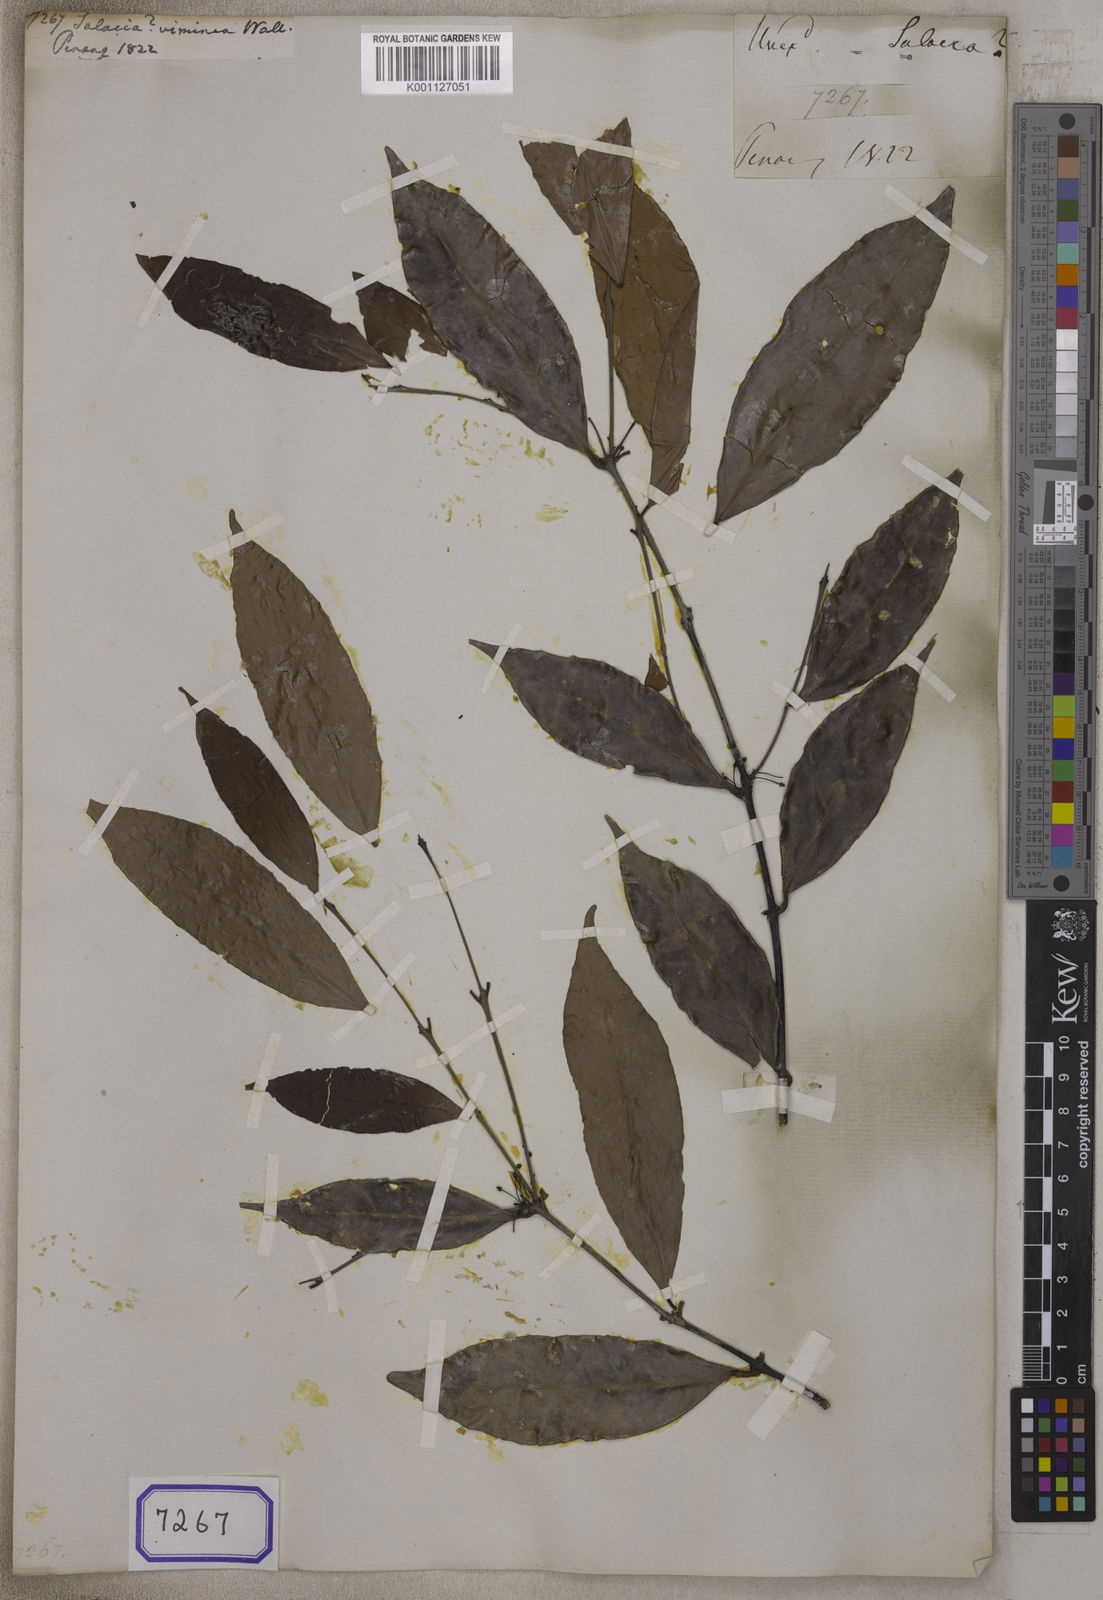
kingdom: Plantae
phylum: Tracheophyta
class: Magnoliopsida
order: Celastrales
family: Celastraceae
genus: Salacia
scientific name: Salacia
